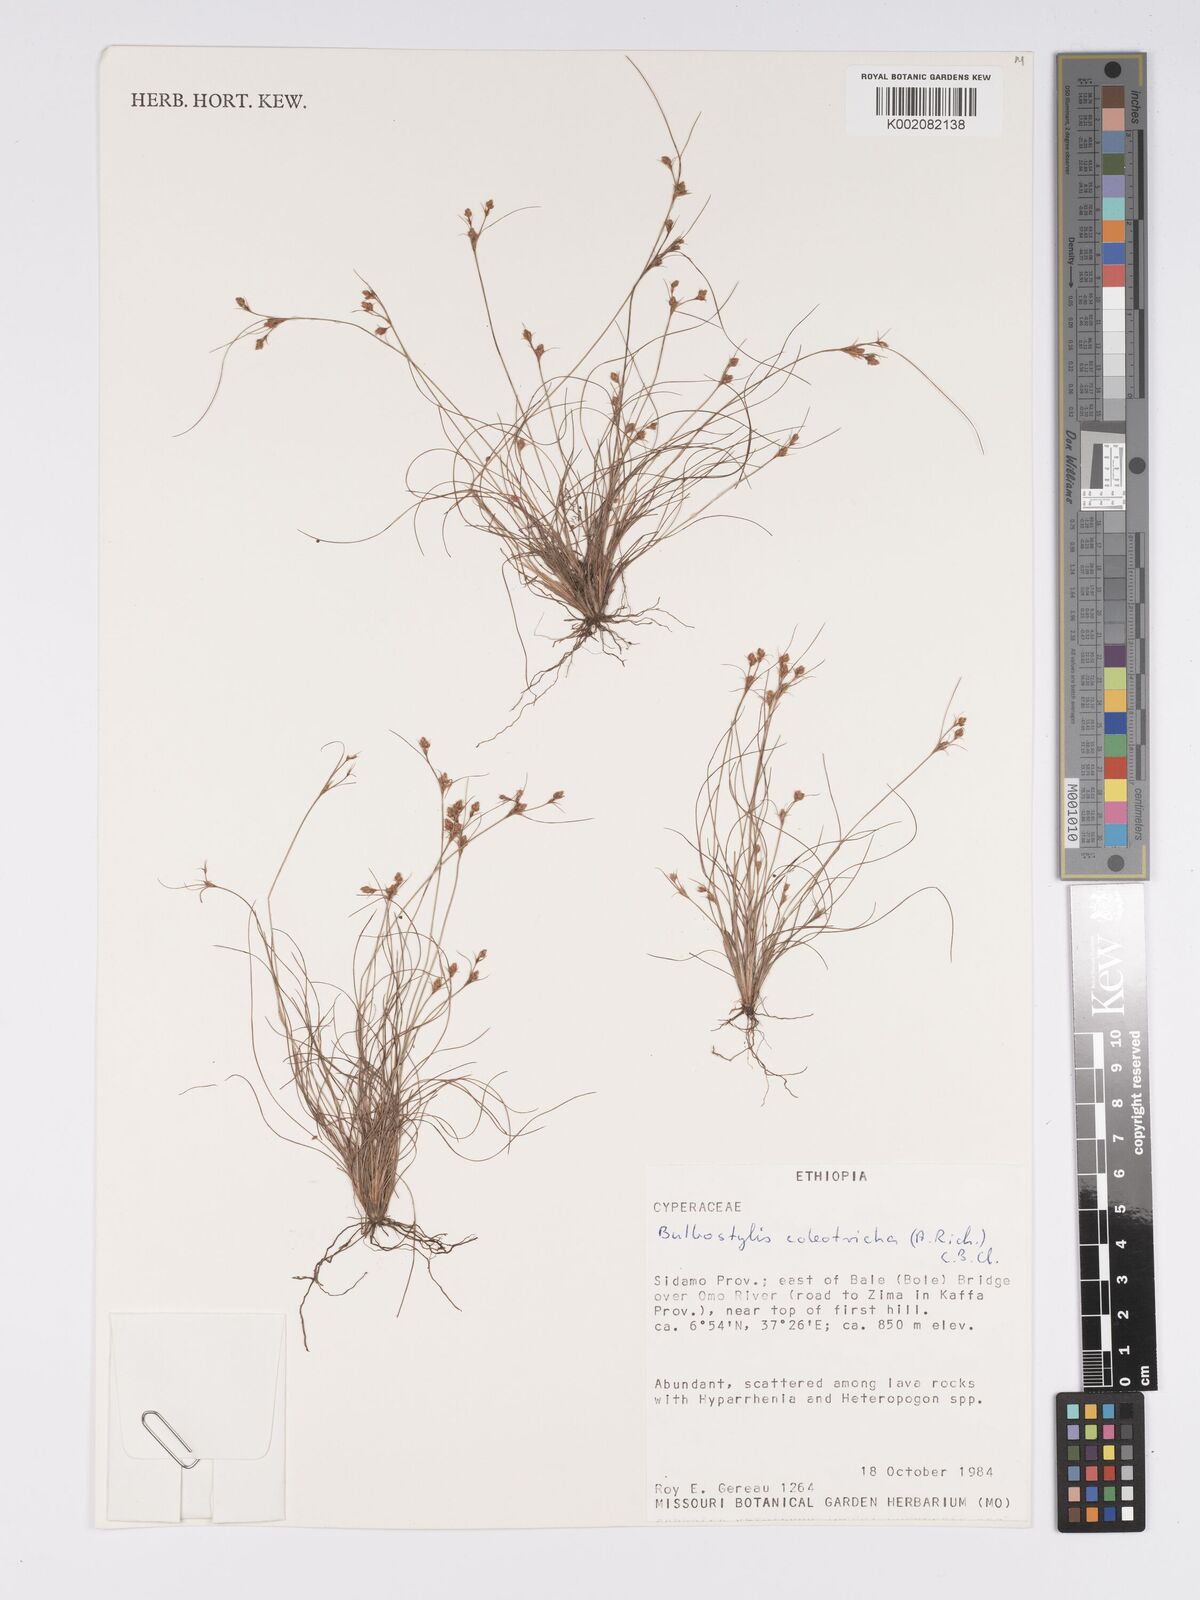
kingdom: Plantae
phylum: Tracheophyta
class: Liliopsida
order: Poales
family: Cyperaceae
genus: Bulbostylis
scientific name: Bulbostylis coleotricha
